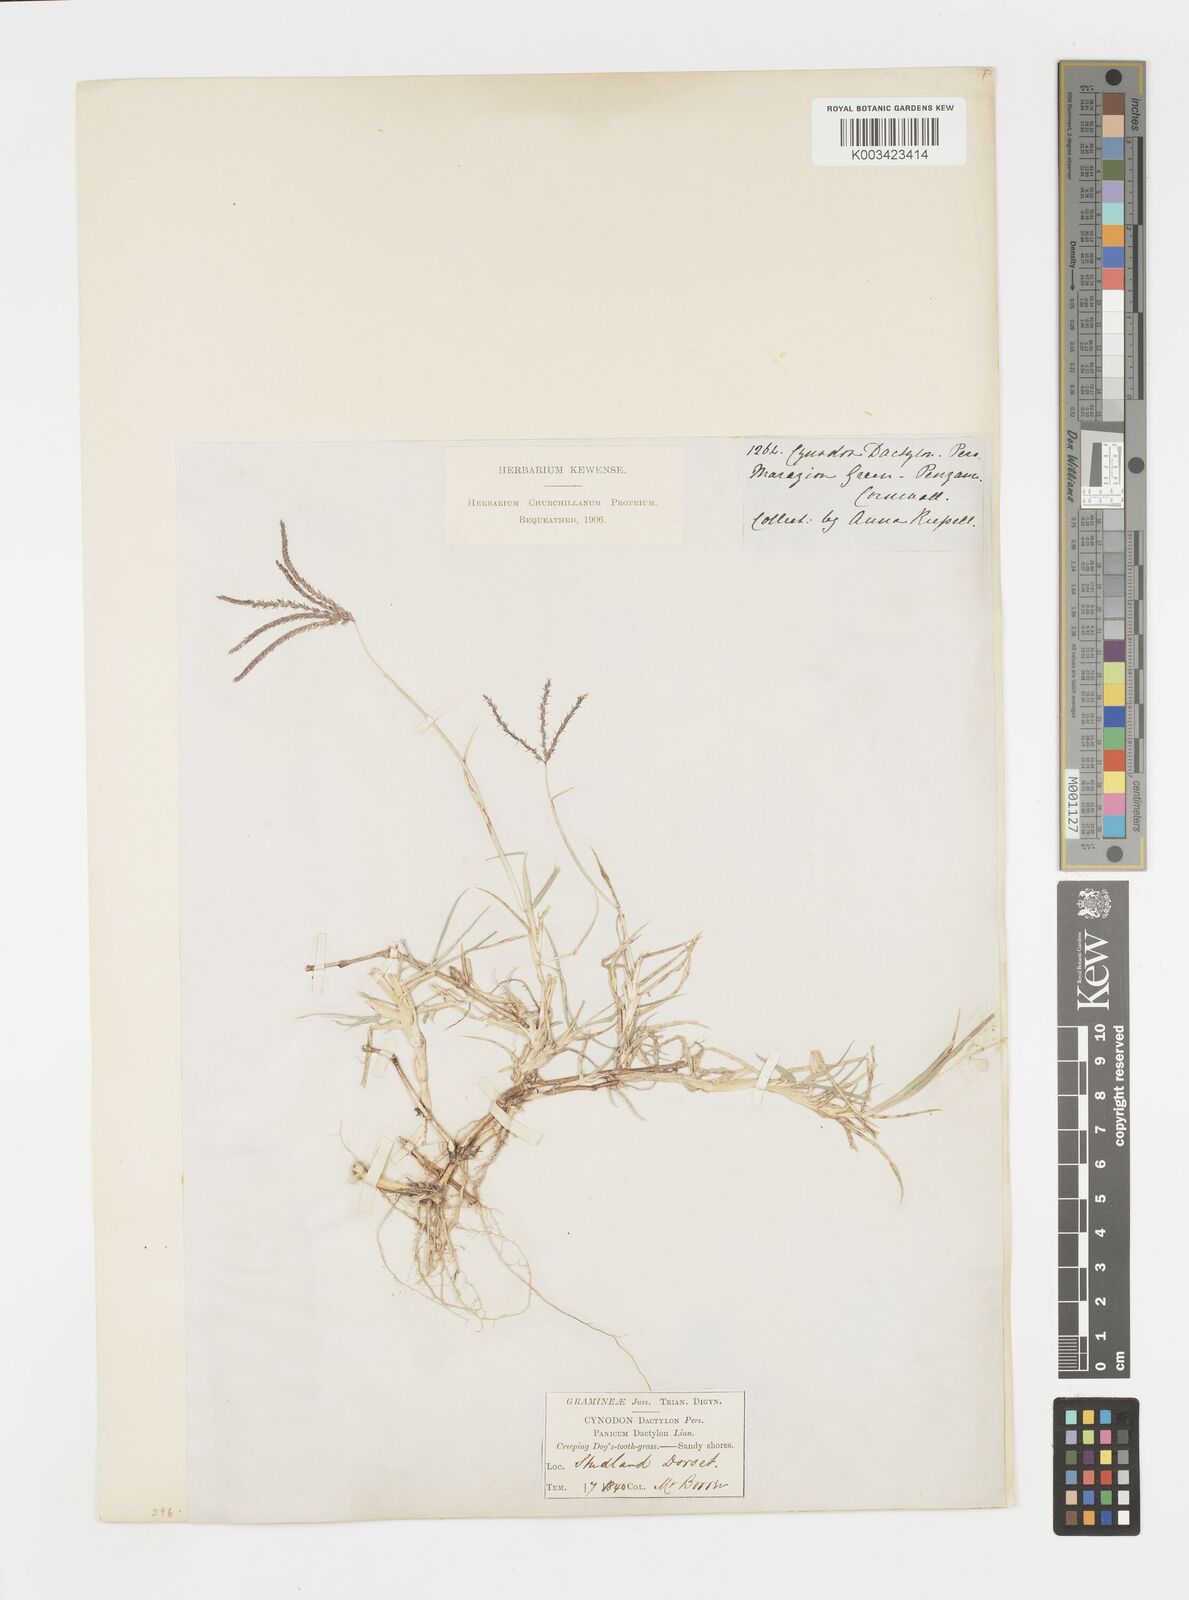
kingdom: Plantae
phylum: Tracheophyta
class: Liliopsida
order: Poales
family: Poaceae
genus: Cynodon
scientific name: Cynodon dactylon
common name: Bermuda grass
